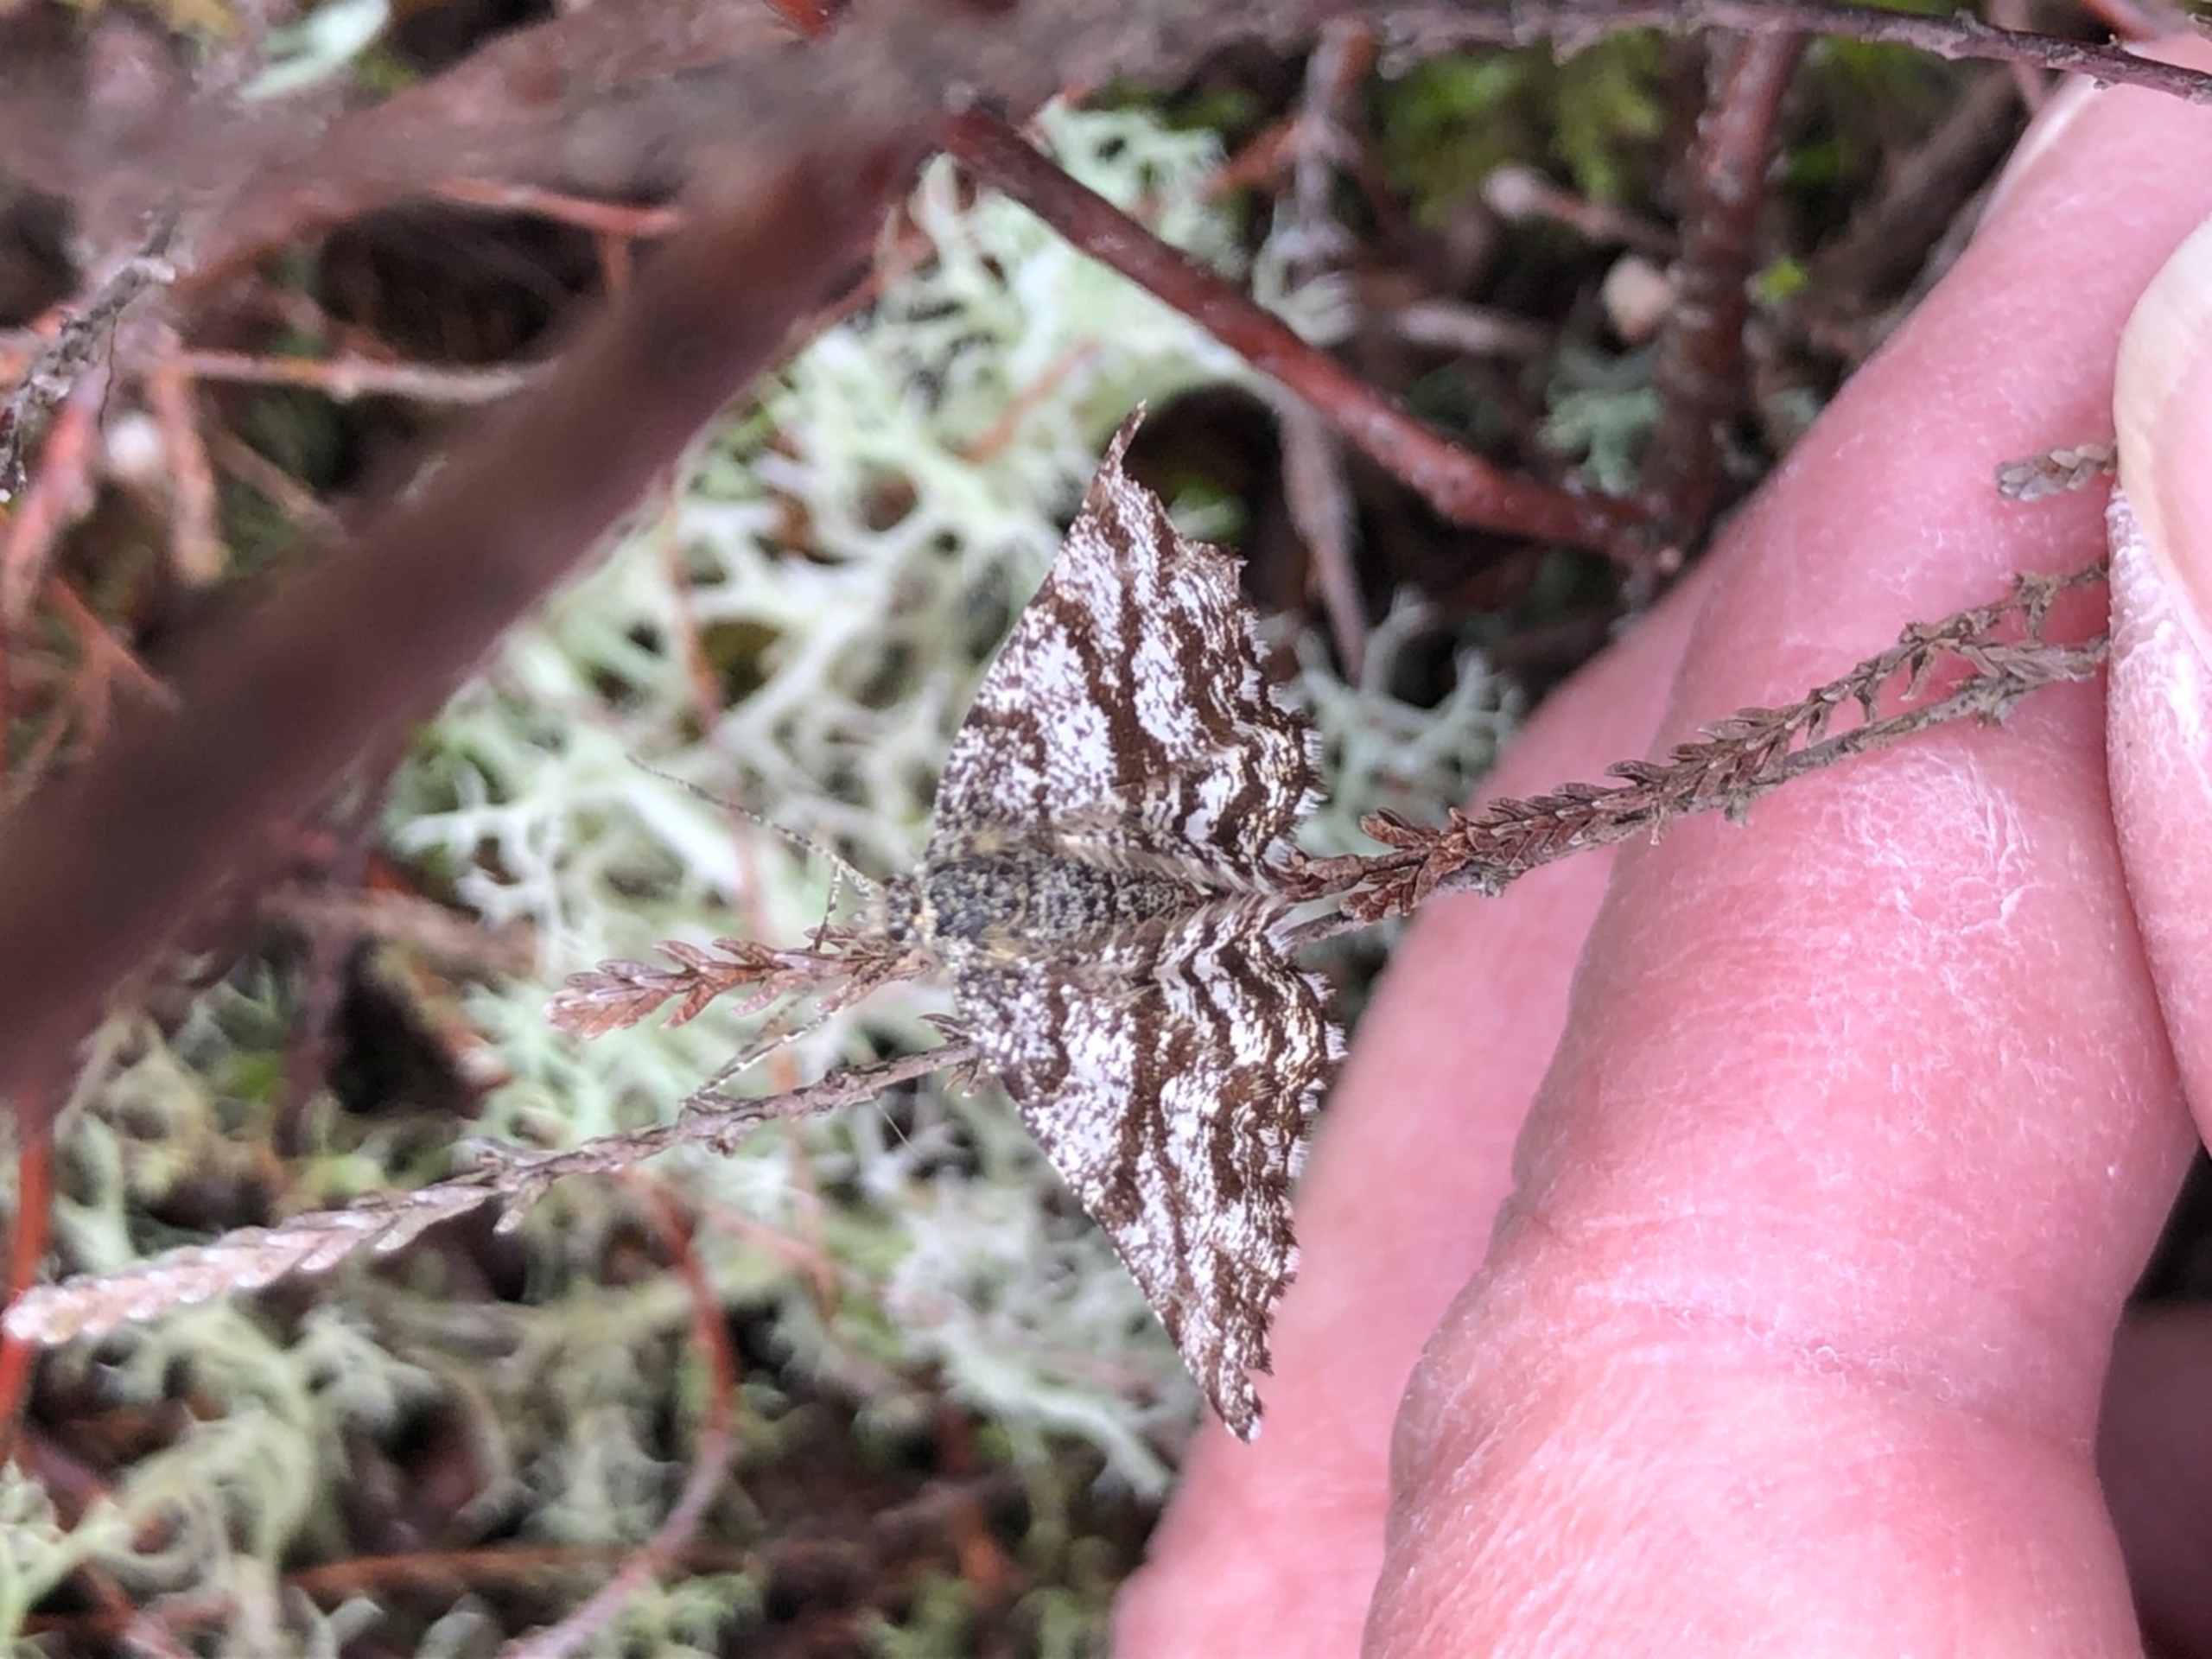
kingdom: Animalia
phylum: Arthropoda
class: Insecta
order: Lepidoptera
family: Geometridae
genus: Ematurga
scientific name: Ematurga atomaria
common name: Lyngmåler
